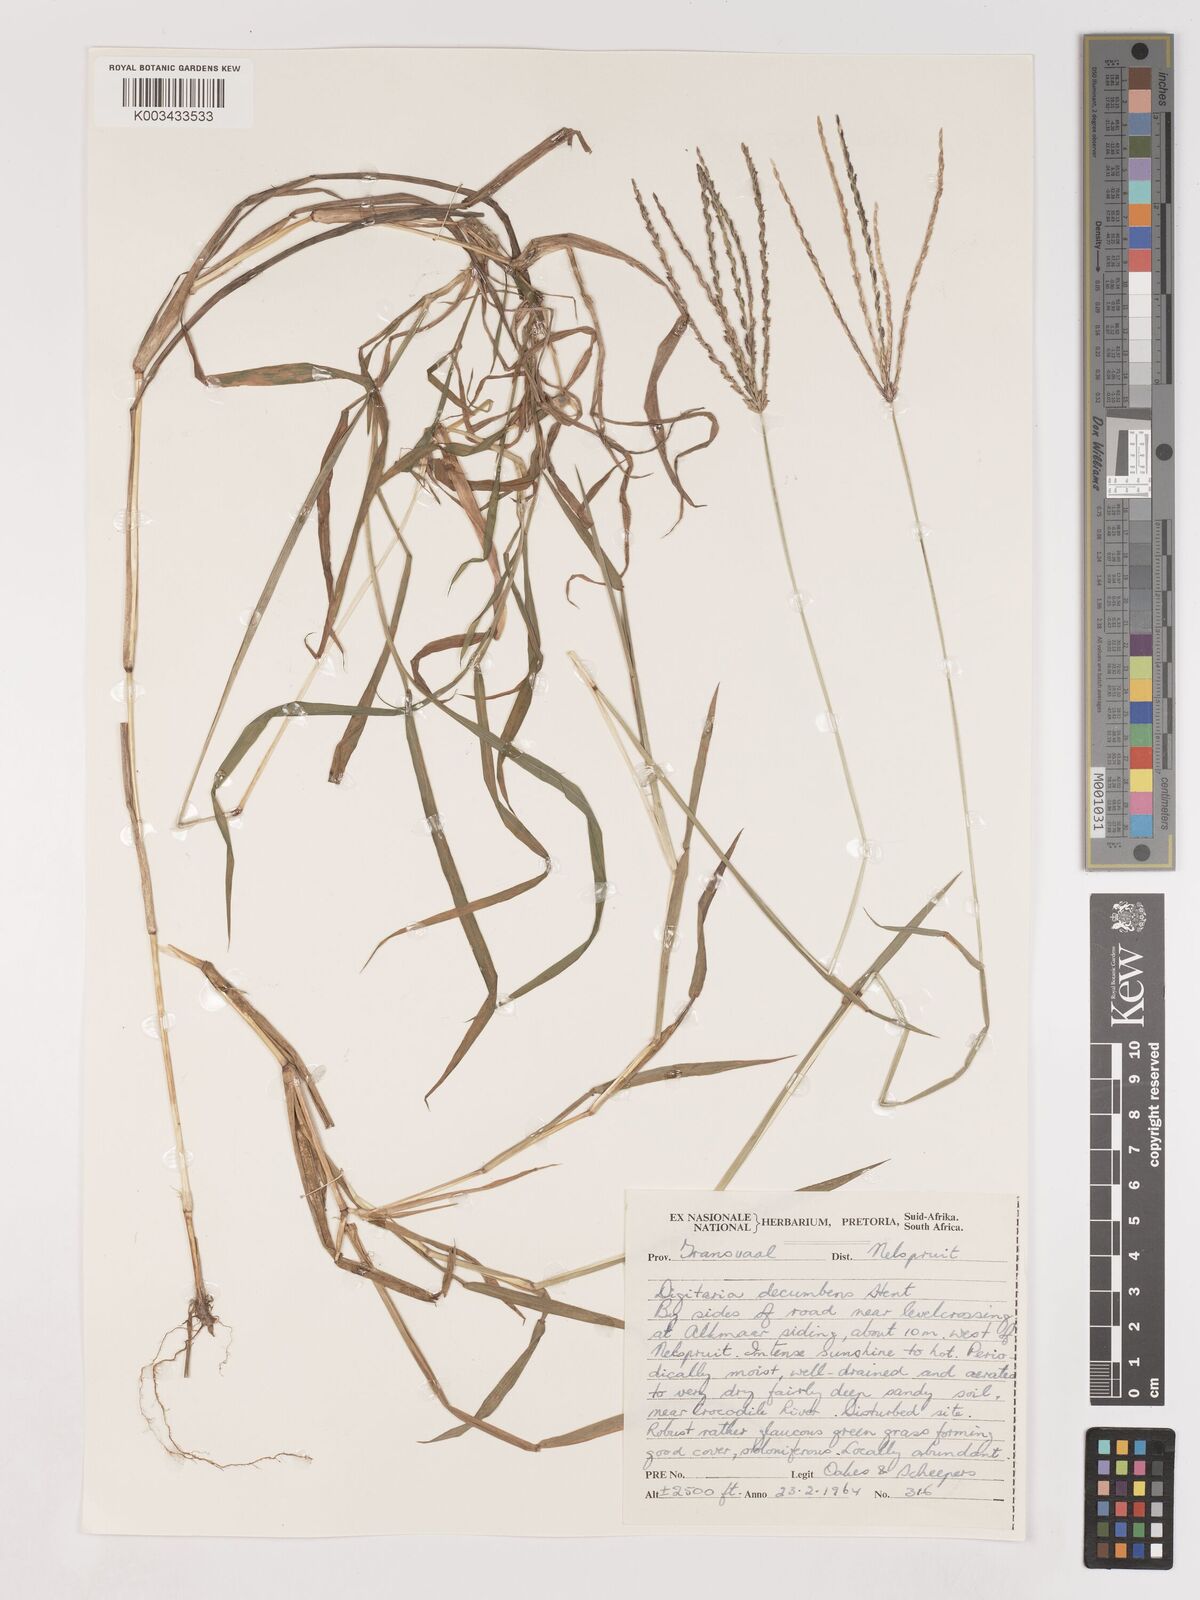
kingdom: Plantae
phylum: Tracheophyta
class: Liliopsida
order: Poales
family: Poaceae
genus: Digitaria
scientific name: Digitaria eriantha
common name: Digitgrass
